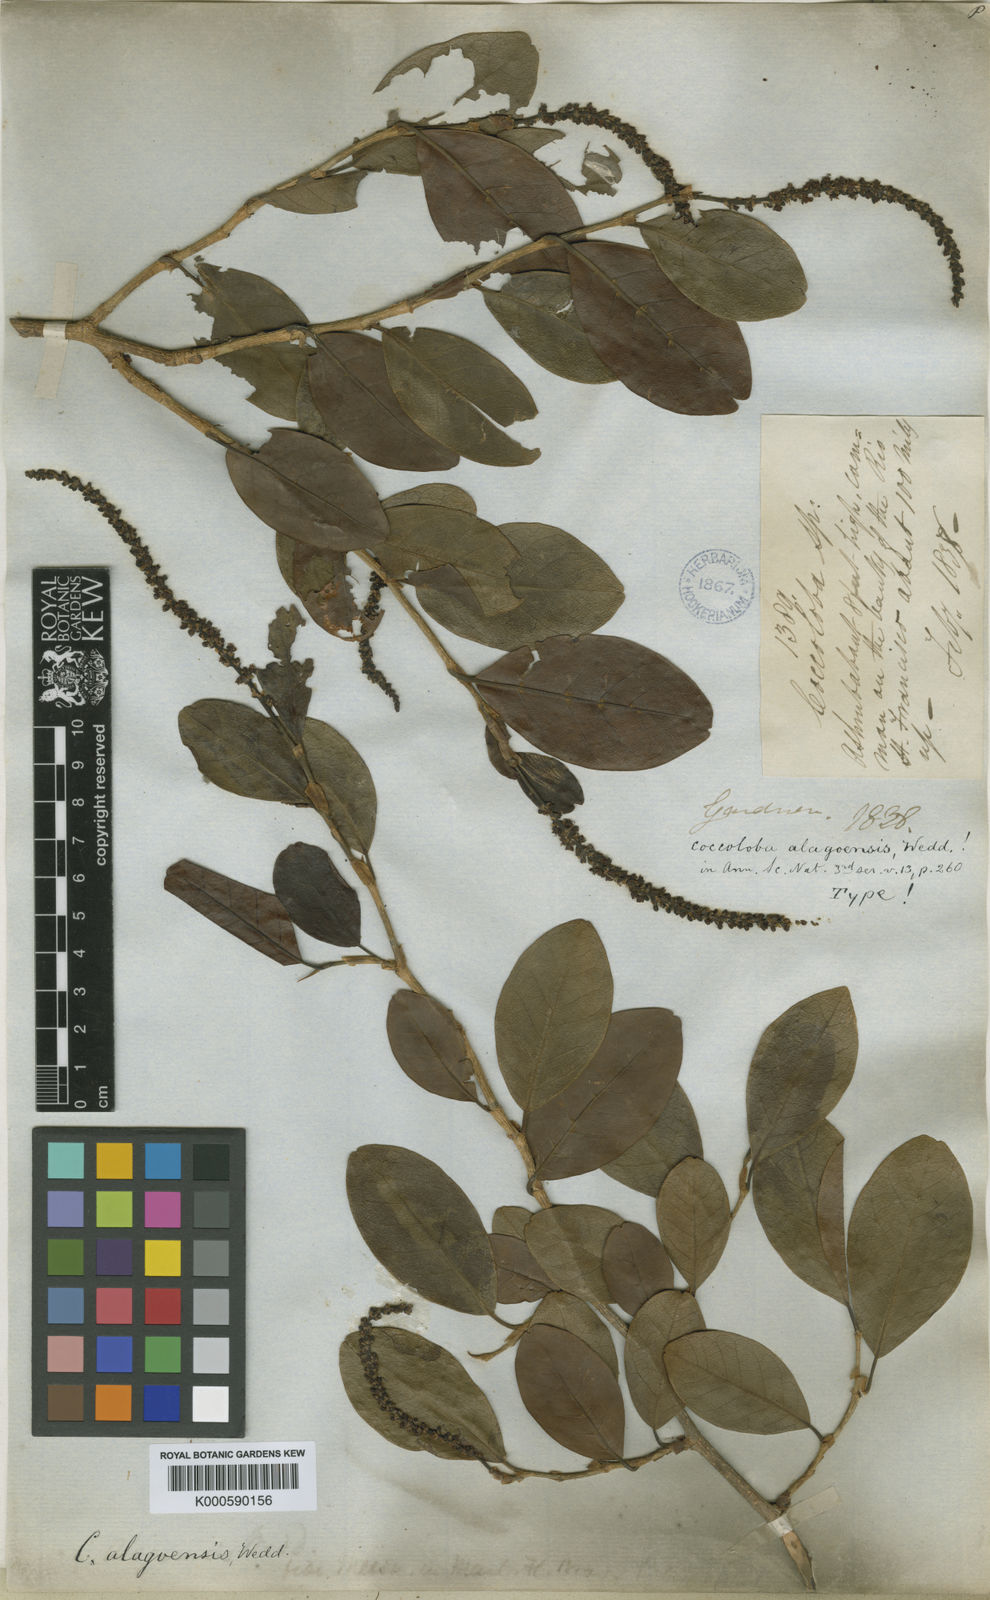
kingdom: Plantae
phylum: Tracheophyta
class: Magnoliopsida
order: Caryophyllales
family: Polygonaceae
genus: Coccoloba
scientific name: Coccoloba obtusifolia
